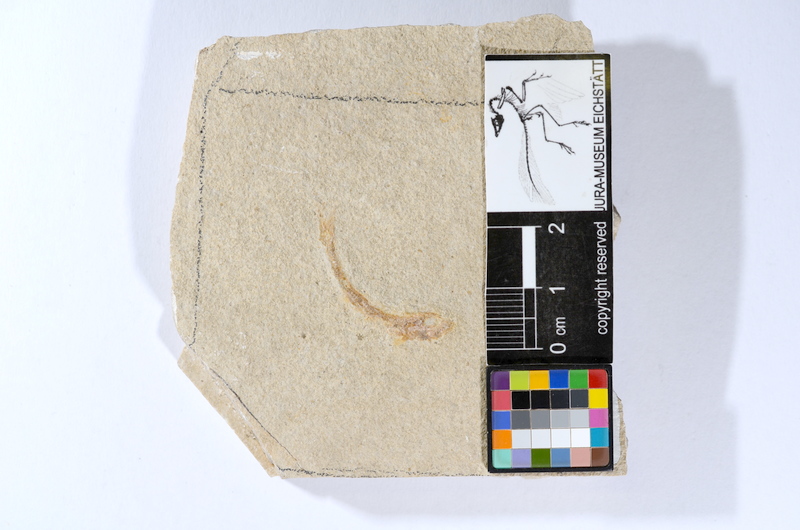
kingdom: Animalia
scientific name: Animalia
